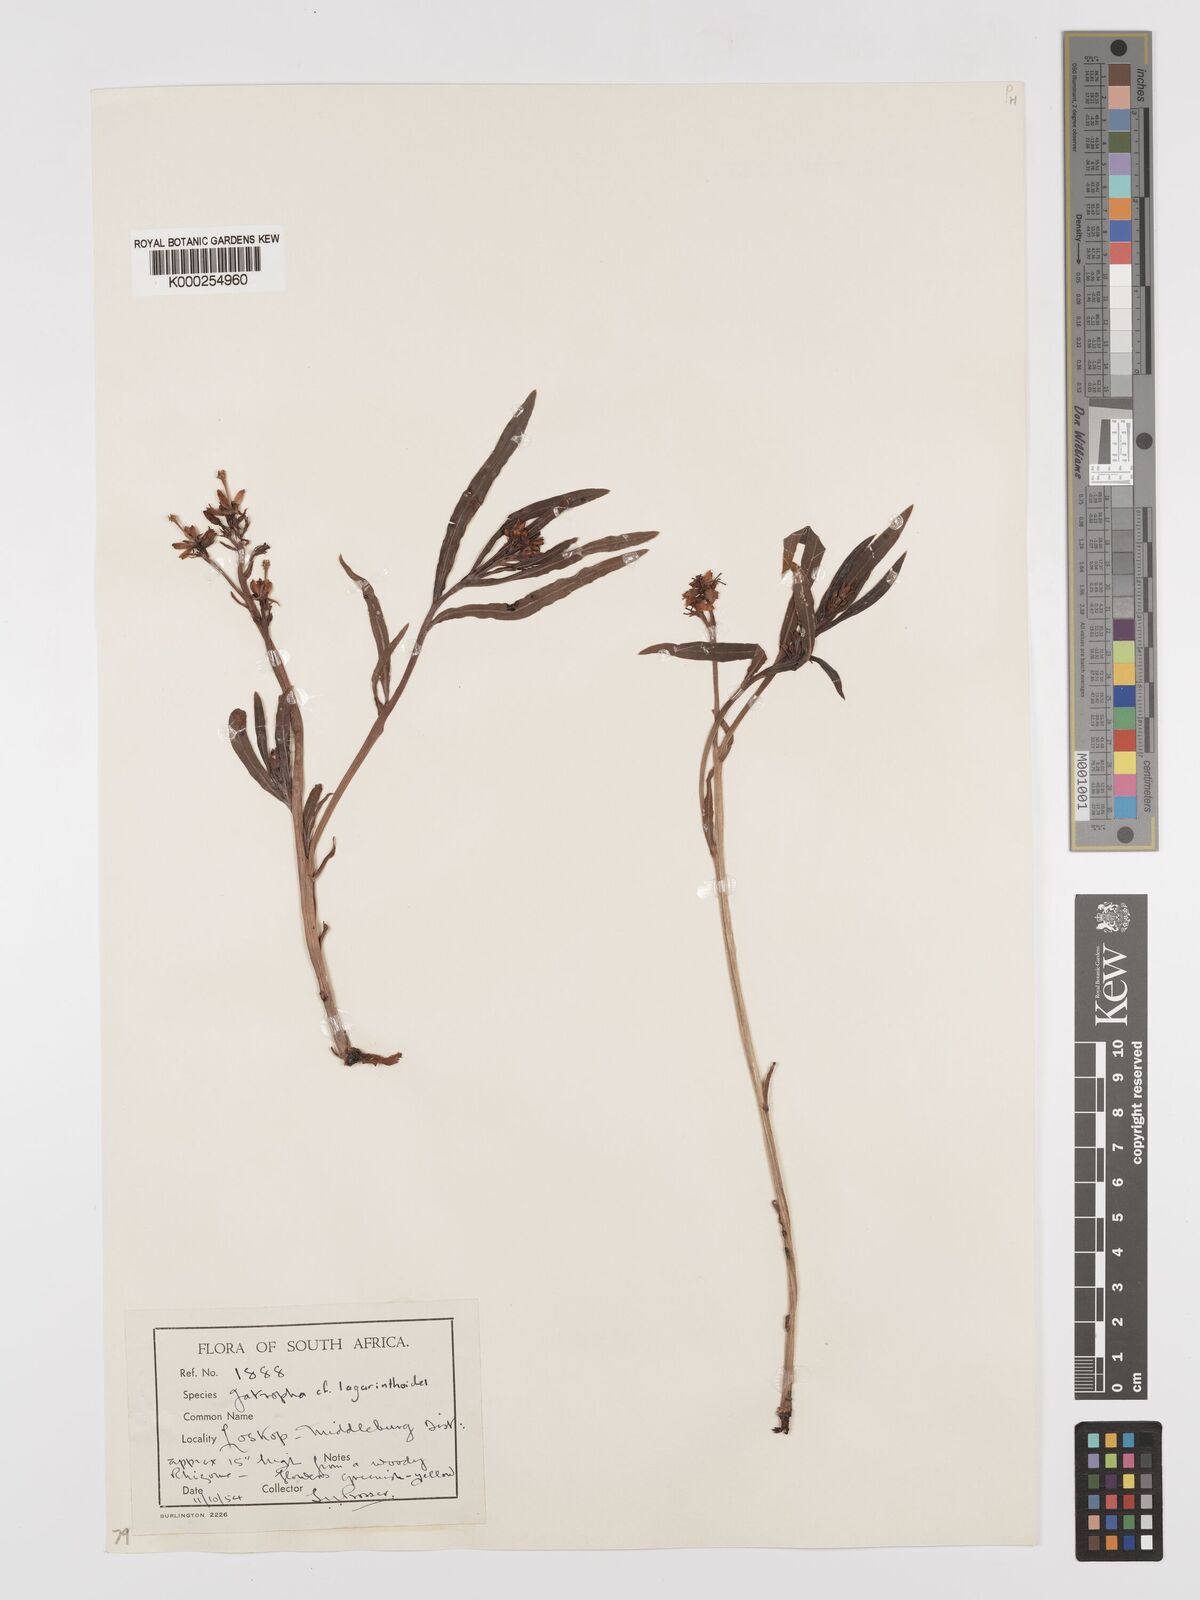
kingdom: Plantae
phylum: Tracheophyta
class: Magnoliopsida
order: Malpighiales
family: Euphorbiaceae
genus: Jatropha
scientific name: Jatropha lagarinthoides
